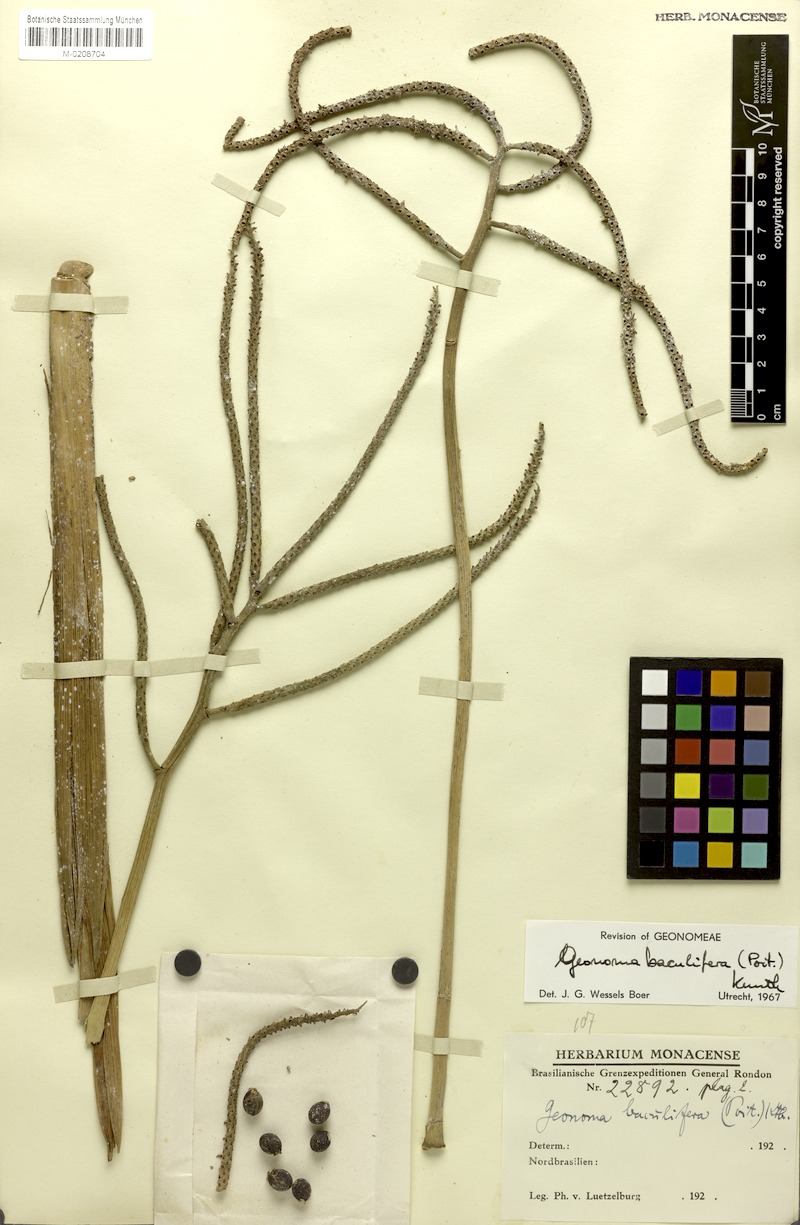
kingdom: Plantae
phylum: Tracheophyta
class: Liliopsida
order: Arecales
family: Arecaceae
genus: Geonoma
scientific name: Geonoma baculifera
